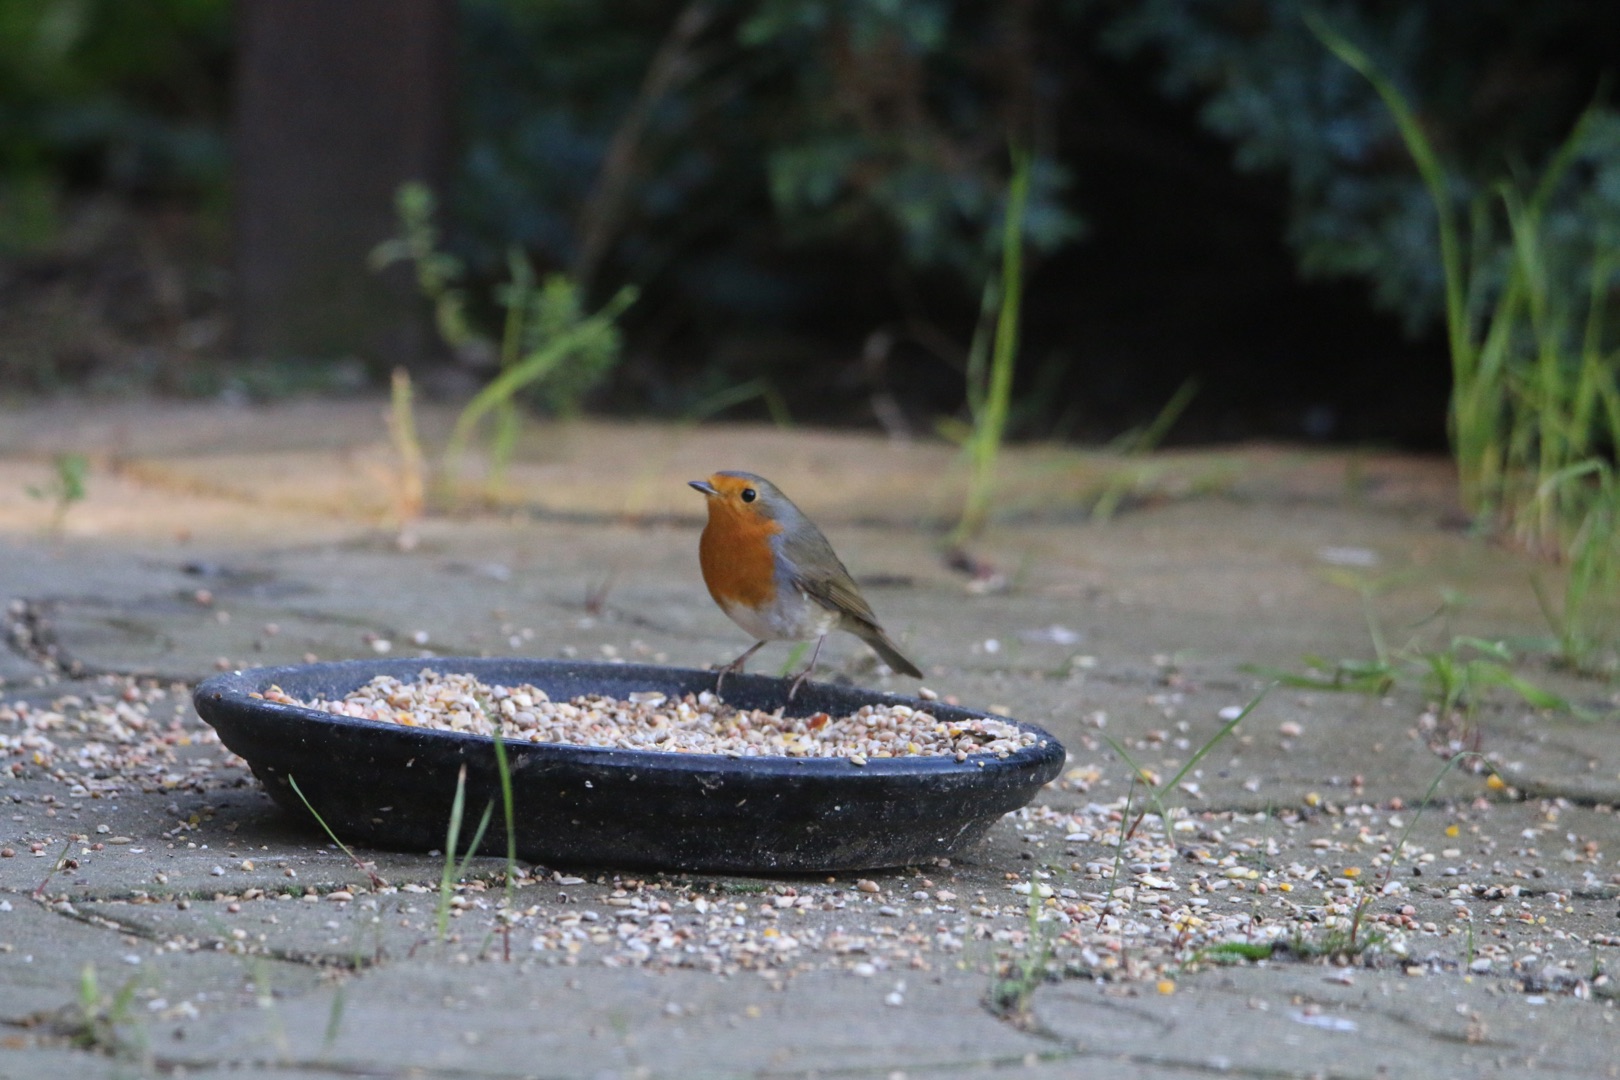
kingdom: Animalia
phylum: Chordata
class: Aves
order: Passeriformes
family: Muscicapidae
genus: Erithacus
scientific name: Erithacus rubecula
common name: Rødhals/rødkælk
